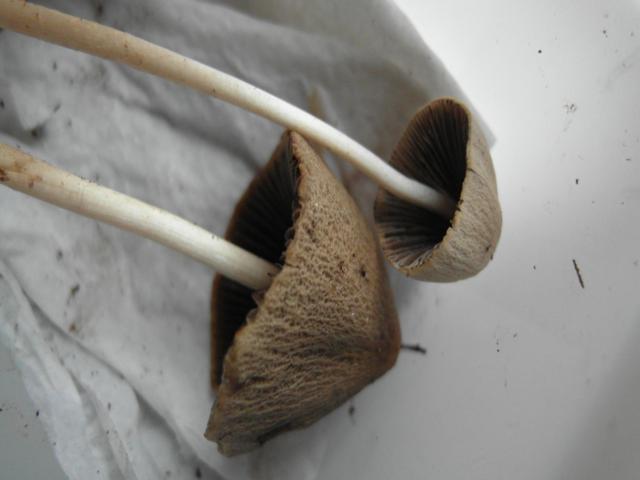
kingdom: Fungi
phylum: Basidiomycota
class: Agaricomycetes
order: Agaricales
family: Psathyrellaceae
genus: Parasola
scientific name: Parasola conopilea
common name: kegle-hjulhat
